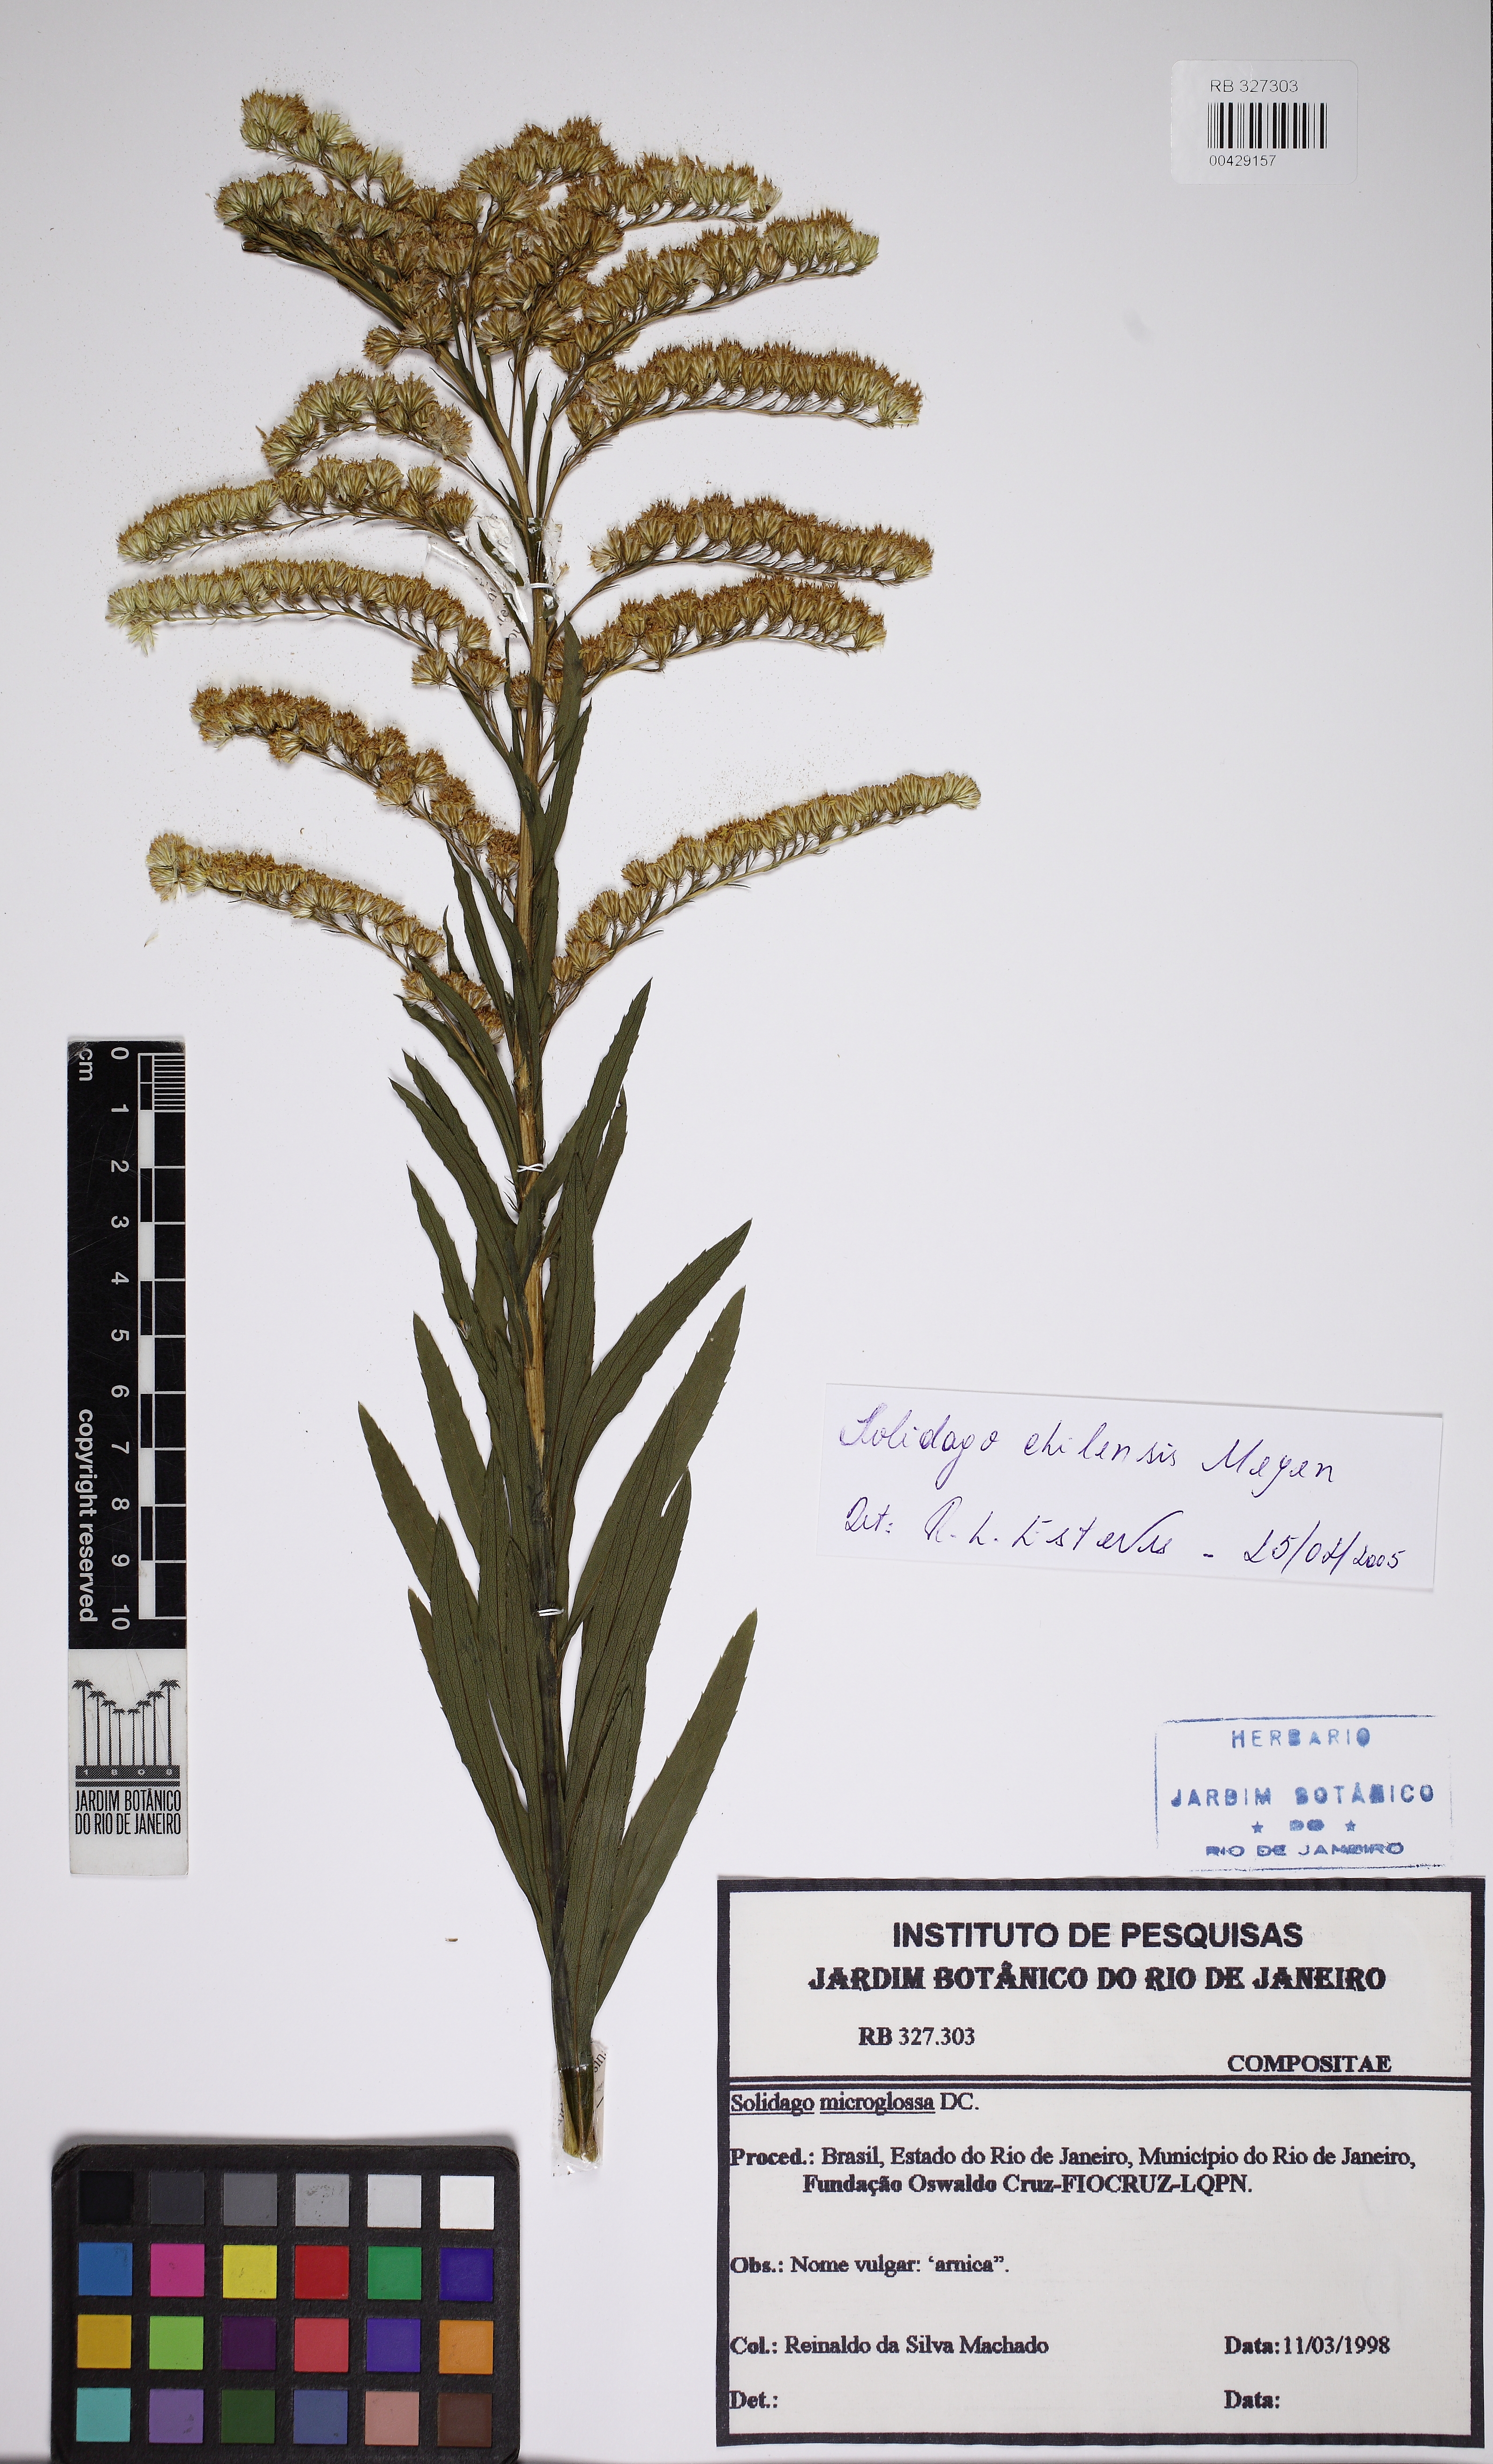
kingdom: Plantae
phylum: Tracheophyta
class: Magnoliopsida
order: Asterales
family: Asteraceae
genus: Solidago
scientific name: Solidago chilensis
